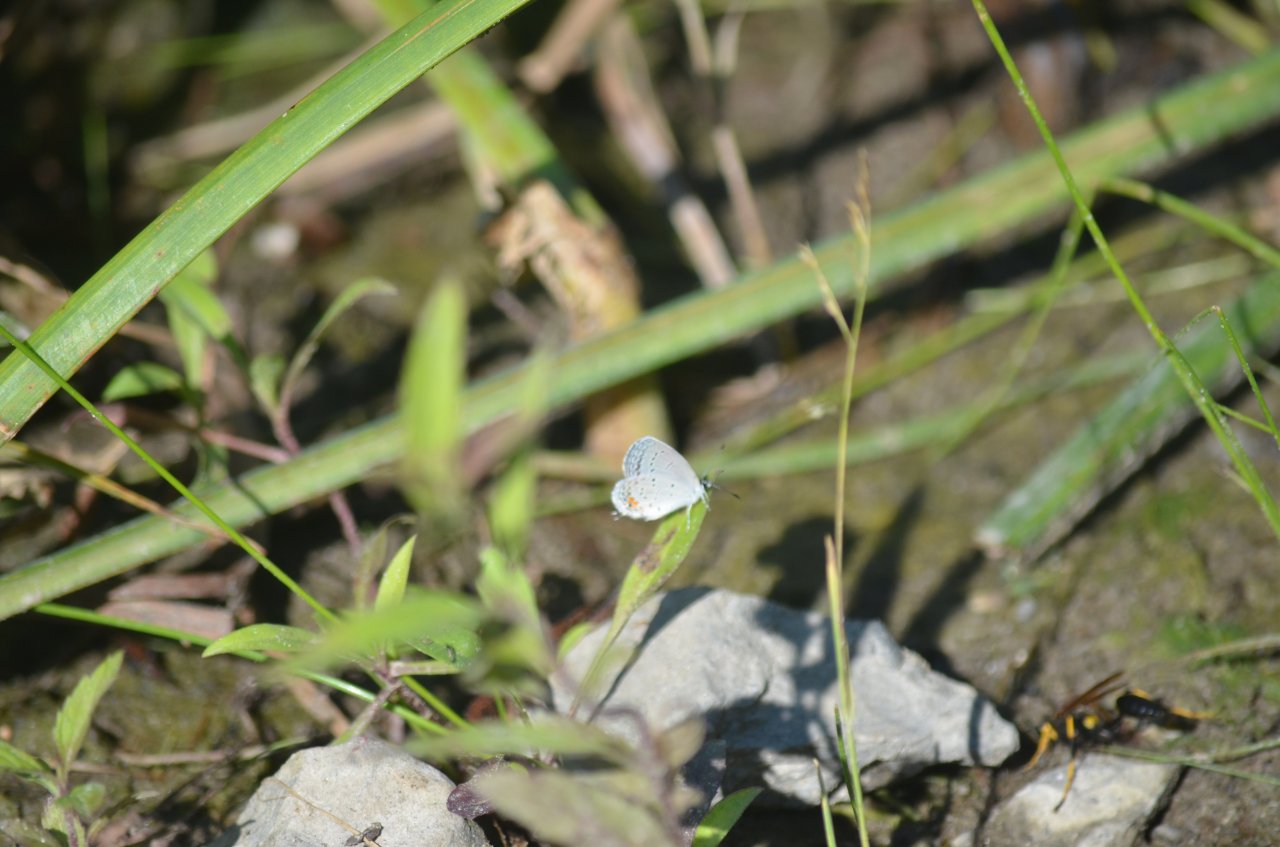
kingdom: Animalia
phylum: Arthropoda
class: Insecta
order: Lepidoptera
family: Lycaenidae
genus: Elkalyce
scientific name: Elkalyce comyntas
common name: Eastern Tailed-Blue
